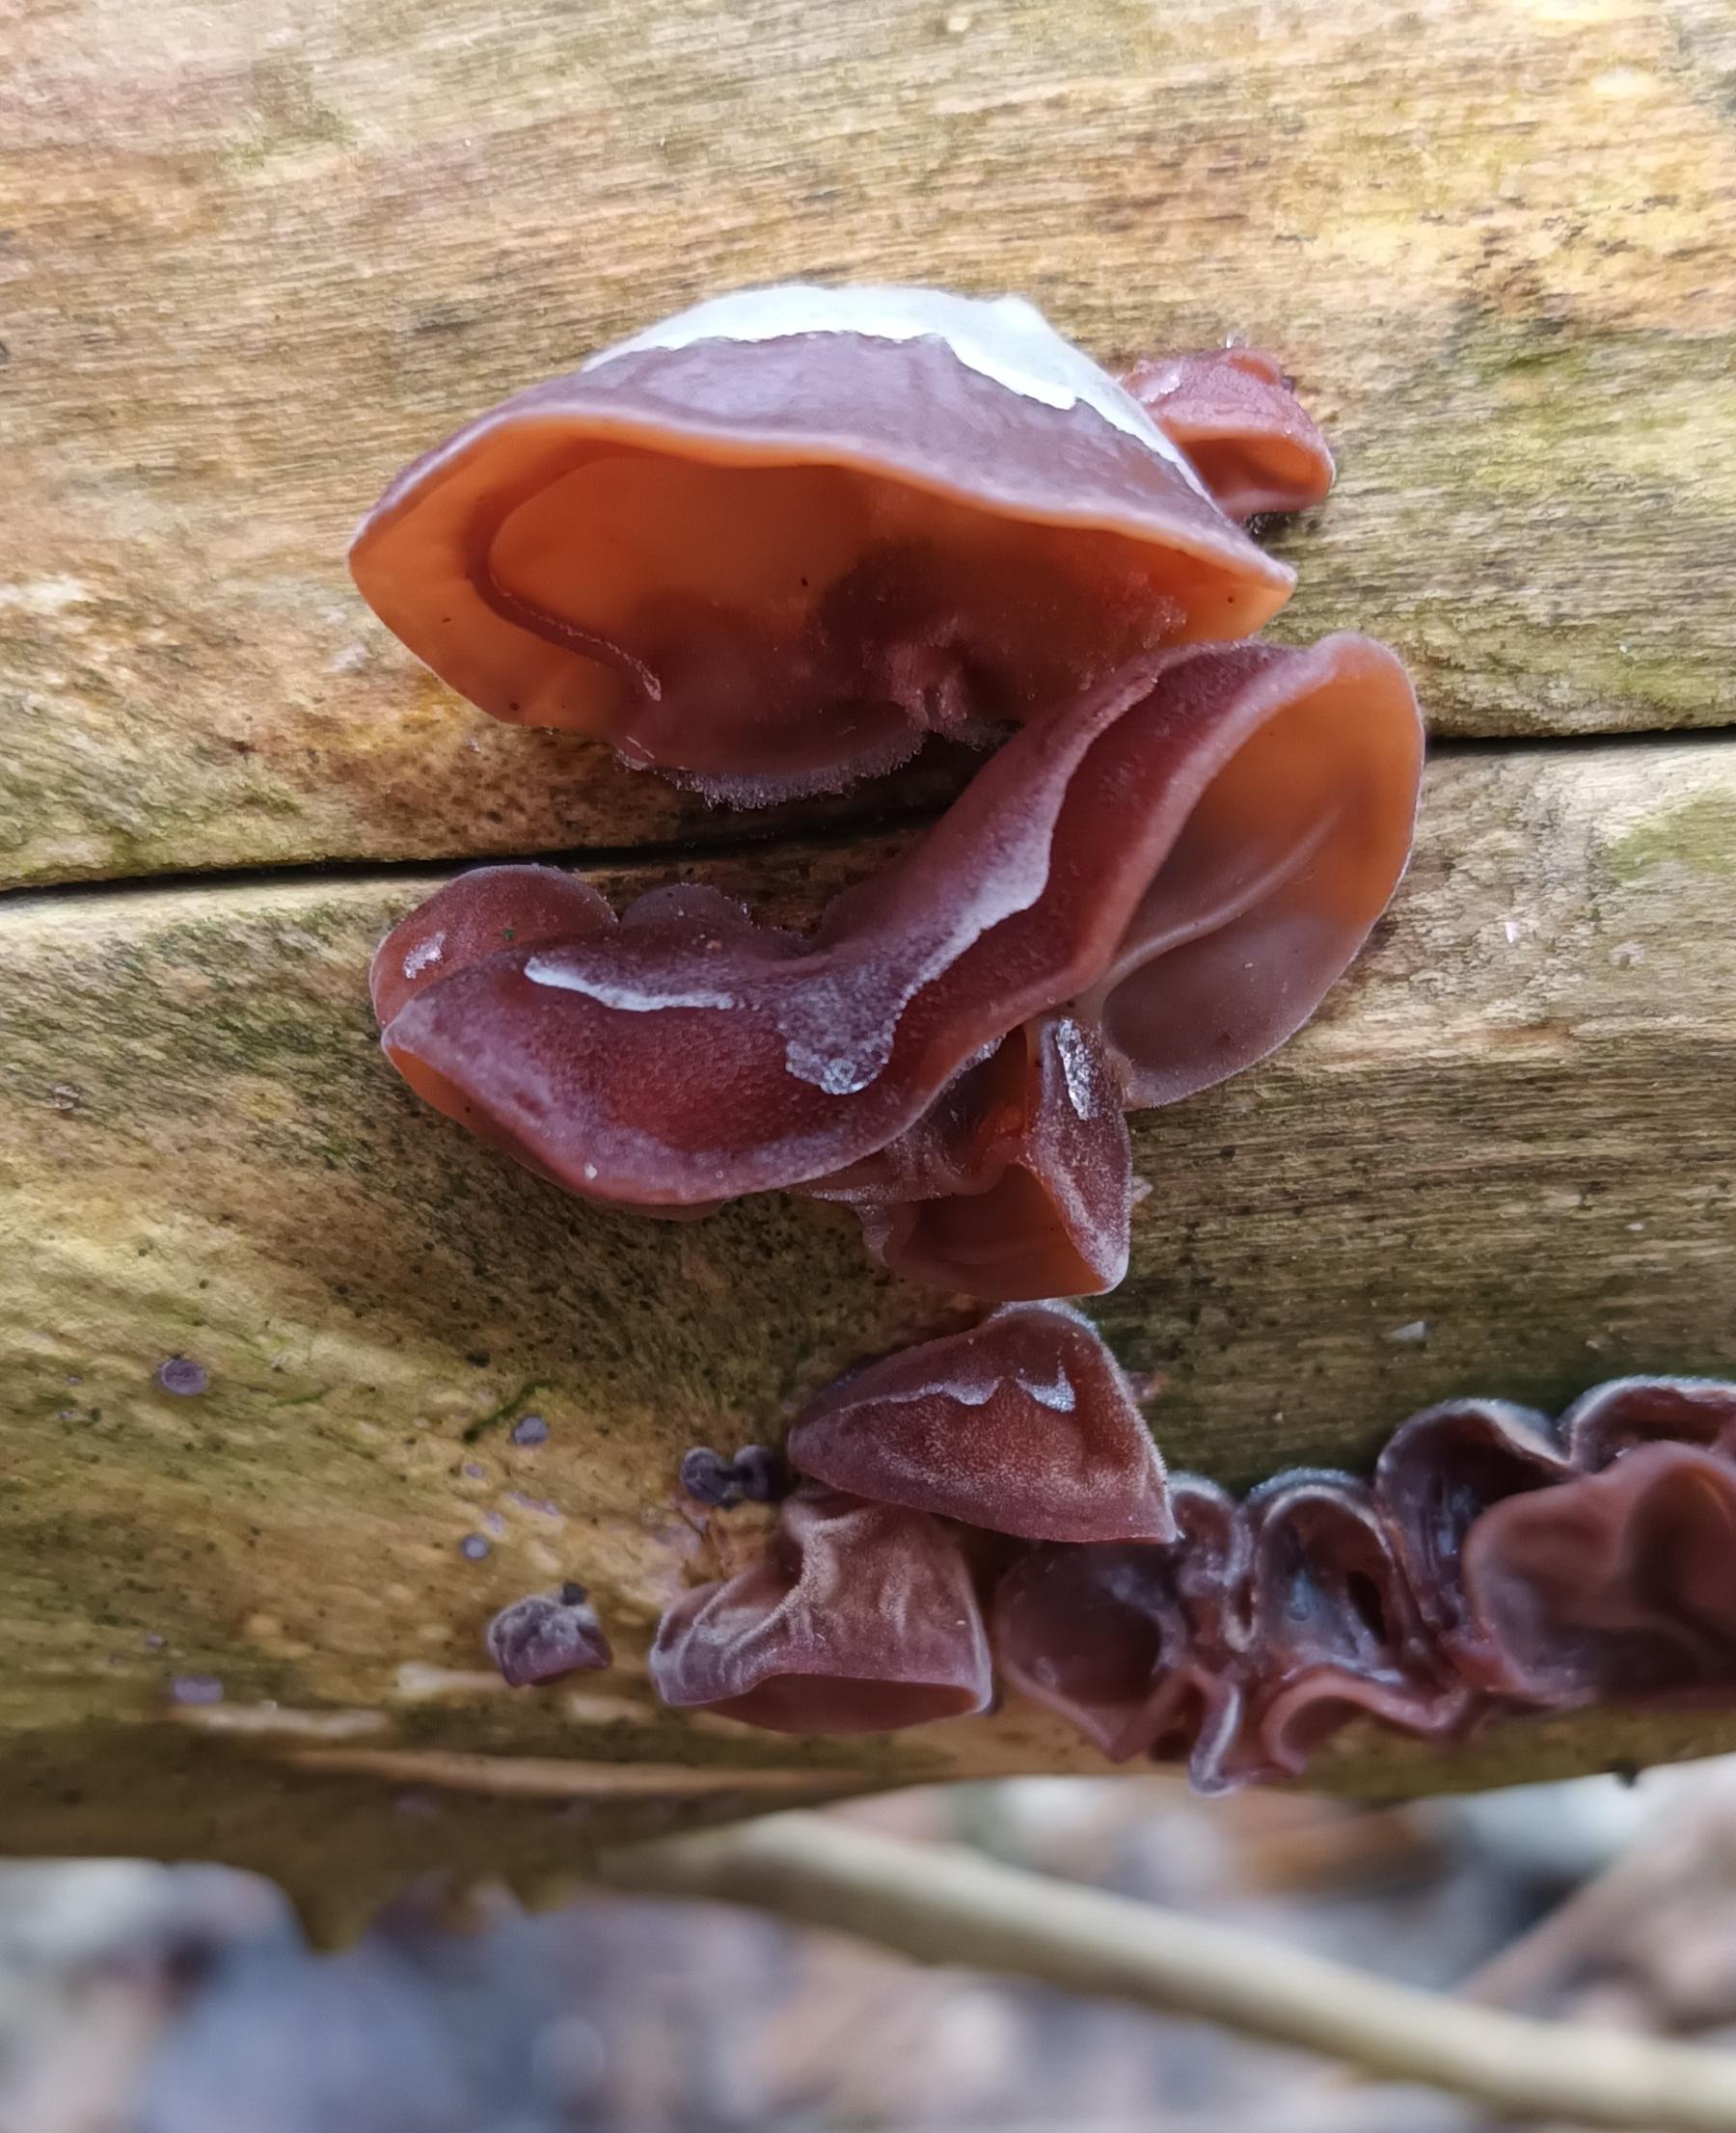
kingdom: Fungi
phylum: Basidiomycota
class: Agaricomycetes
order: Auriculariales
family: Auriculariaceae
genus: Auricularia
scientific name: Auricularia auricula-judae
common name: Almindelig judasøre
